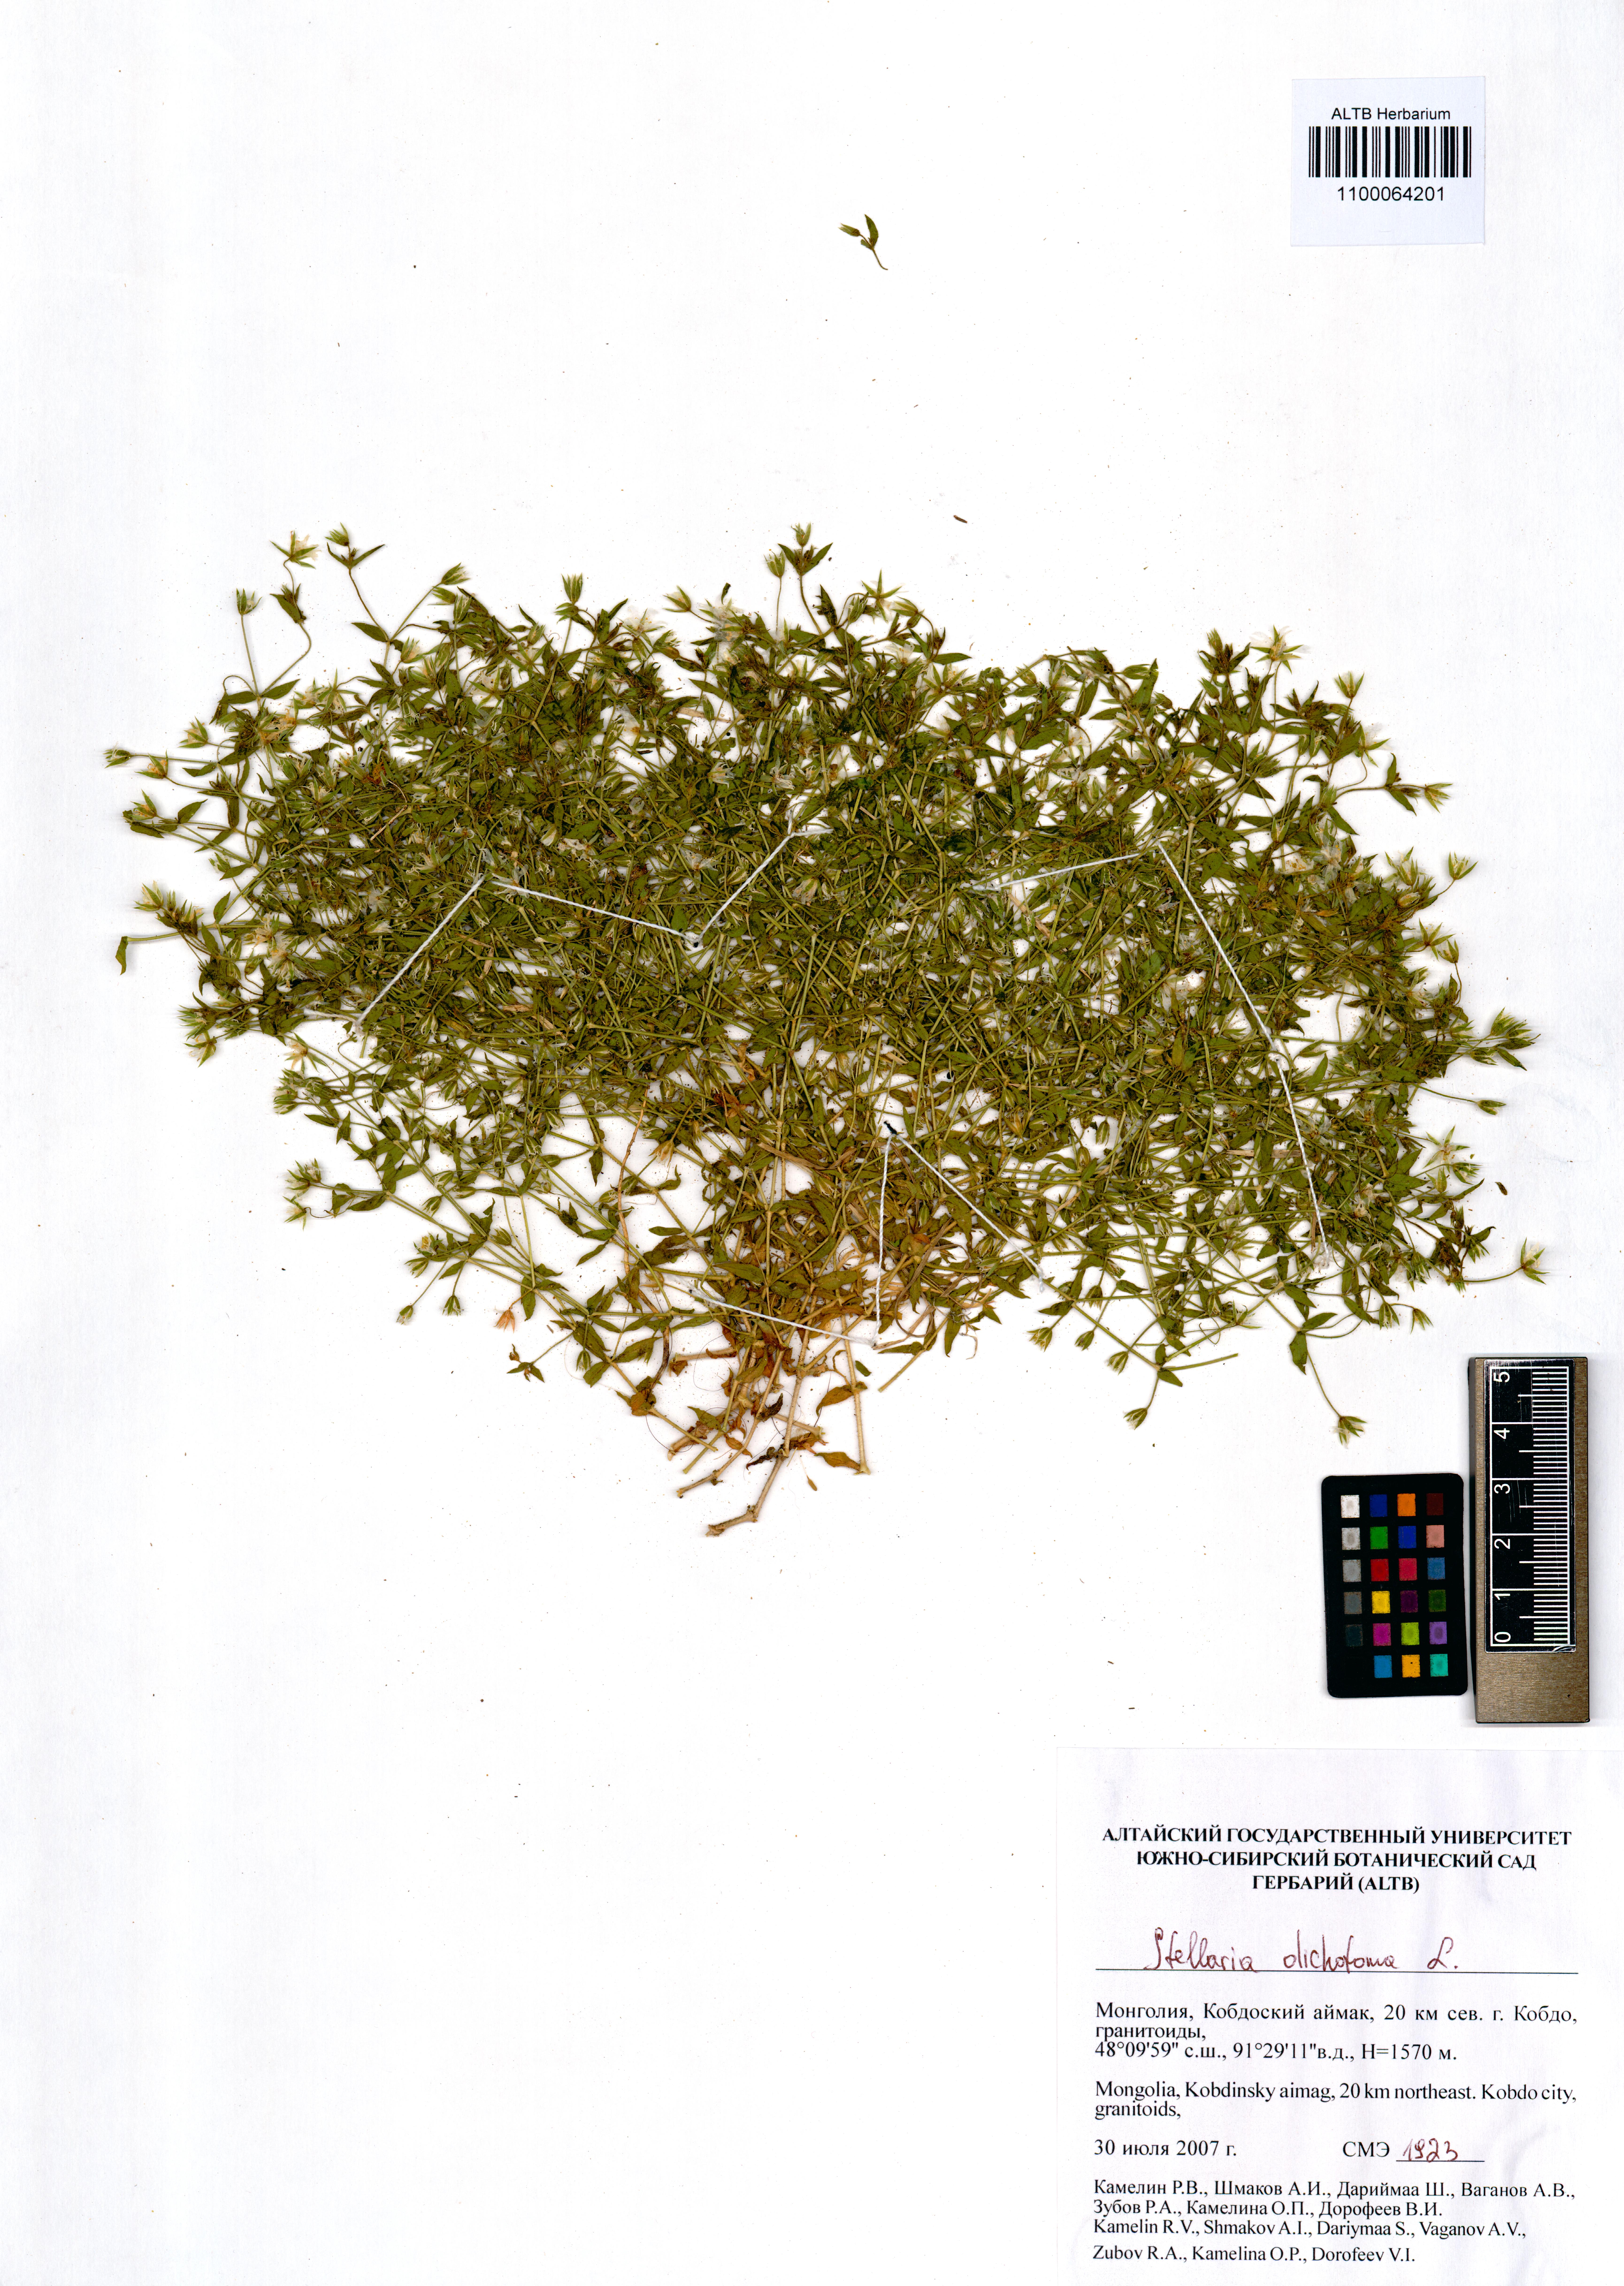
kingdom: Plantae
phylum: Tracheophyta
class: Magnoliopsida
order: Caryophyllales
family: Caryophyllaceae
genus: Mesostemma
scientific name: Mesostemma dichotomum
